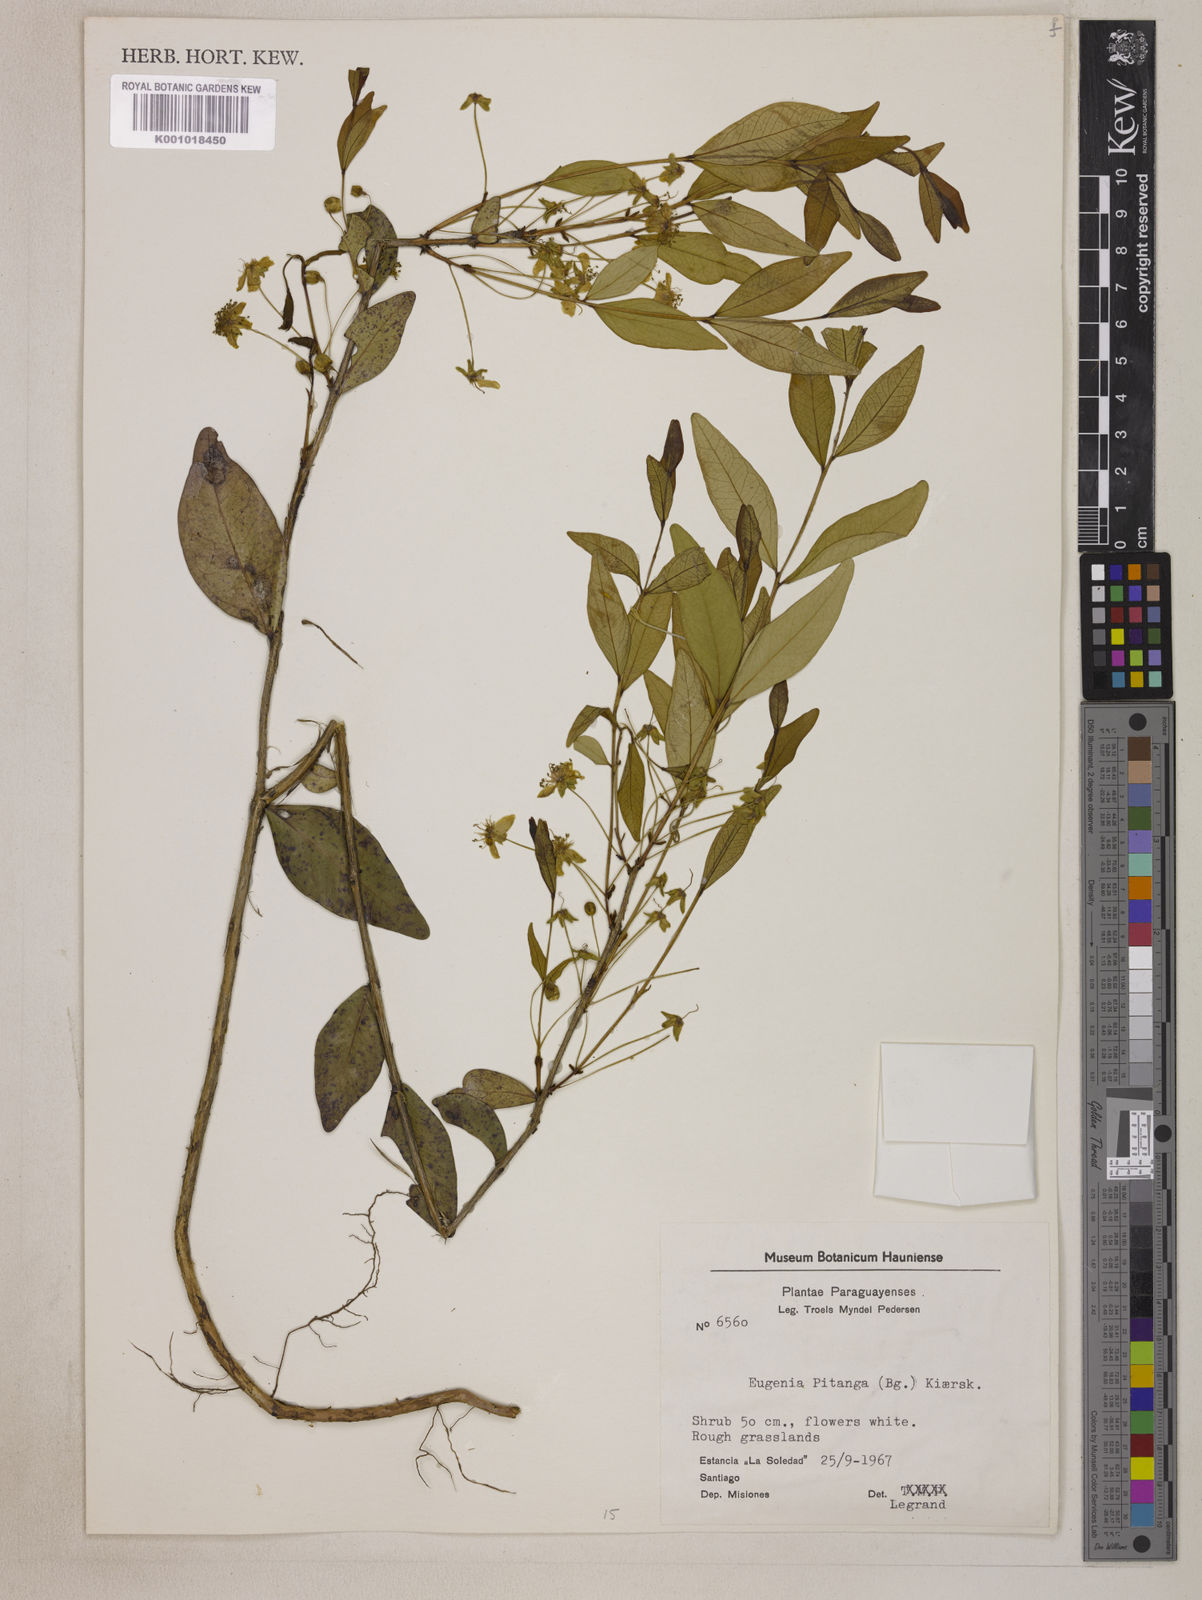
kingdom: Plantae
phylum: Tracheophyta
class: Magnoliopsida
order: Myrtales
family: Myrtaceae
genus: Eugenia
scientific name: Eugenia
